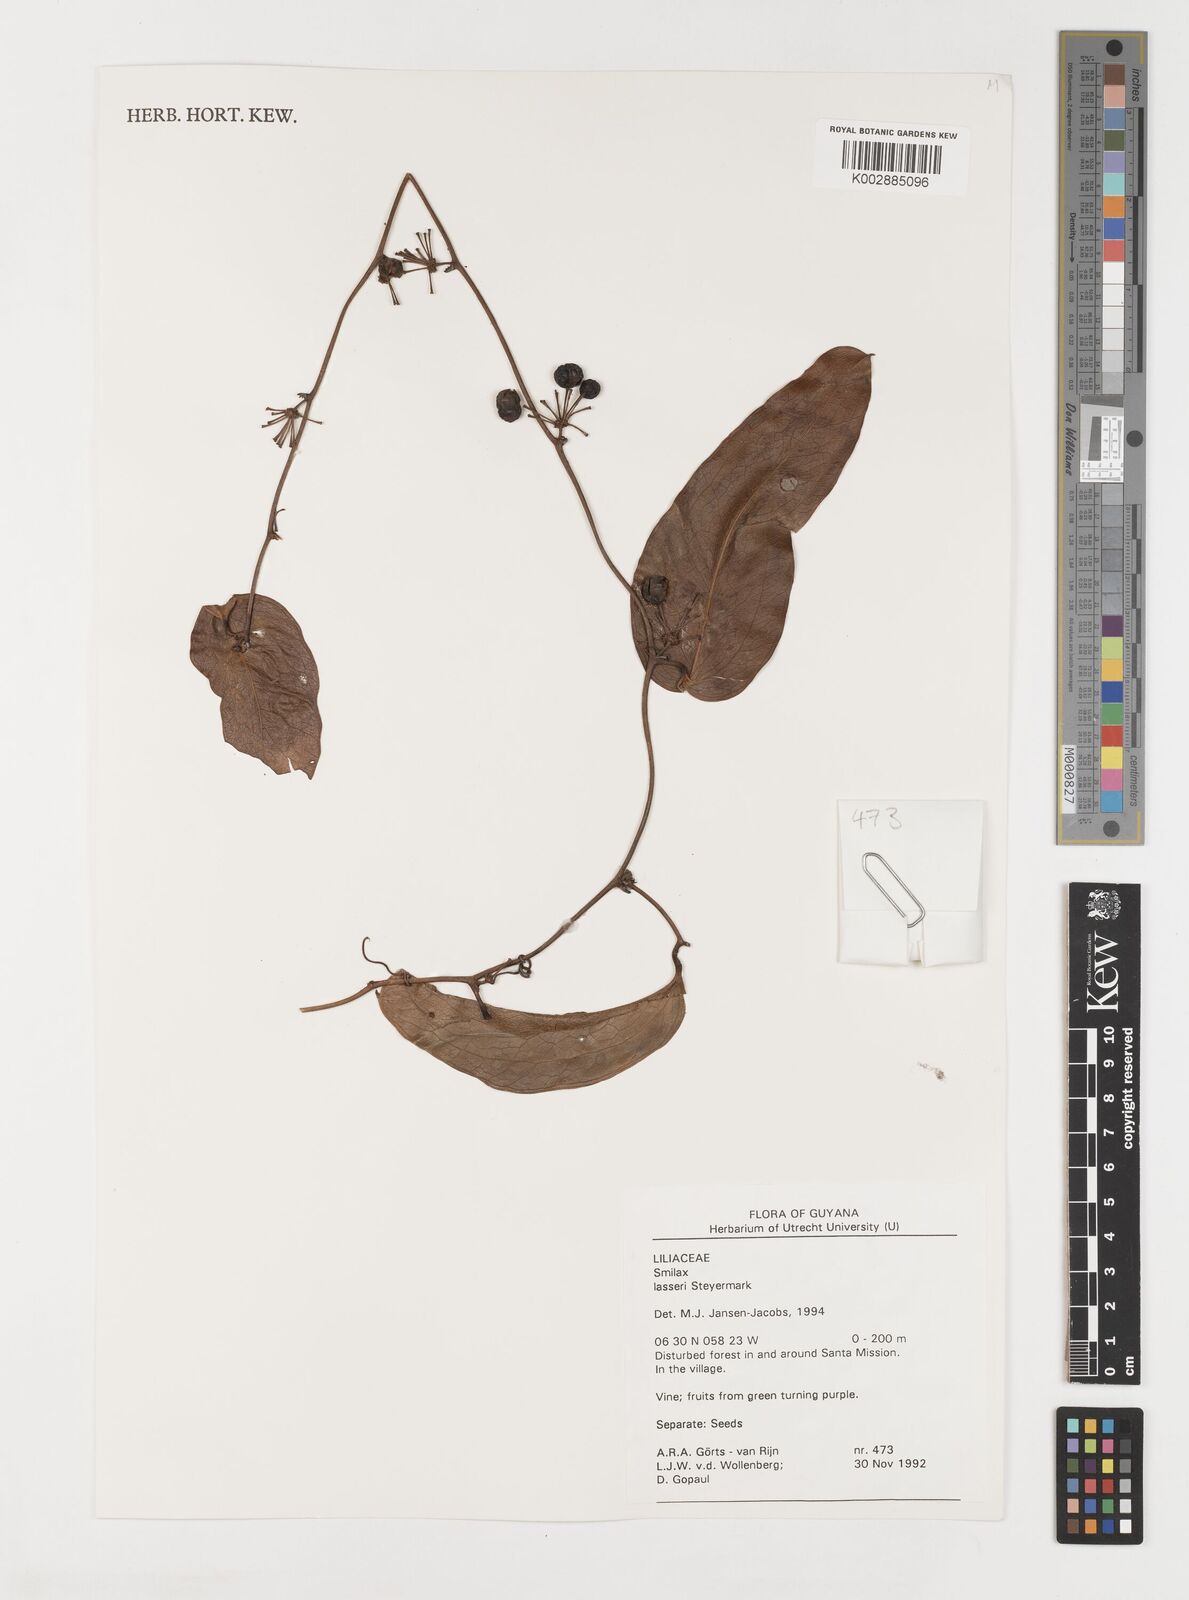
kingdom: Plantae
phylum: Tracheophyta
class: Liliopsida
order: Liliales
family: Smilacaceae
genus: Smilax
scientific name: Smilax domingensis
